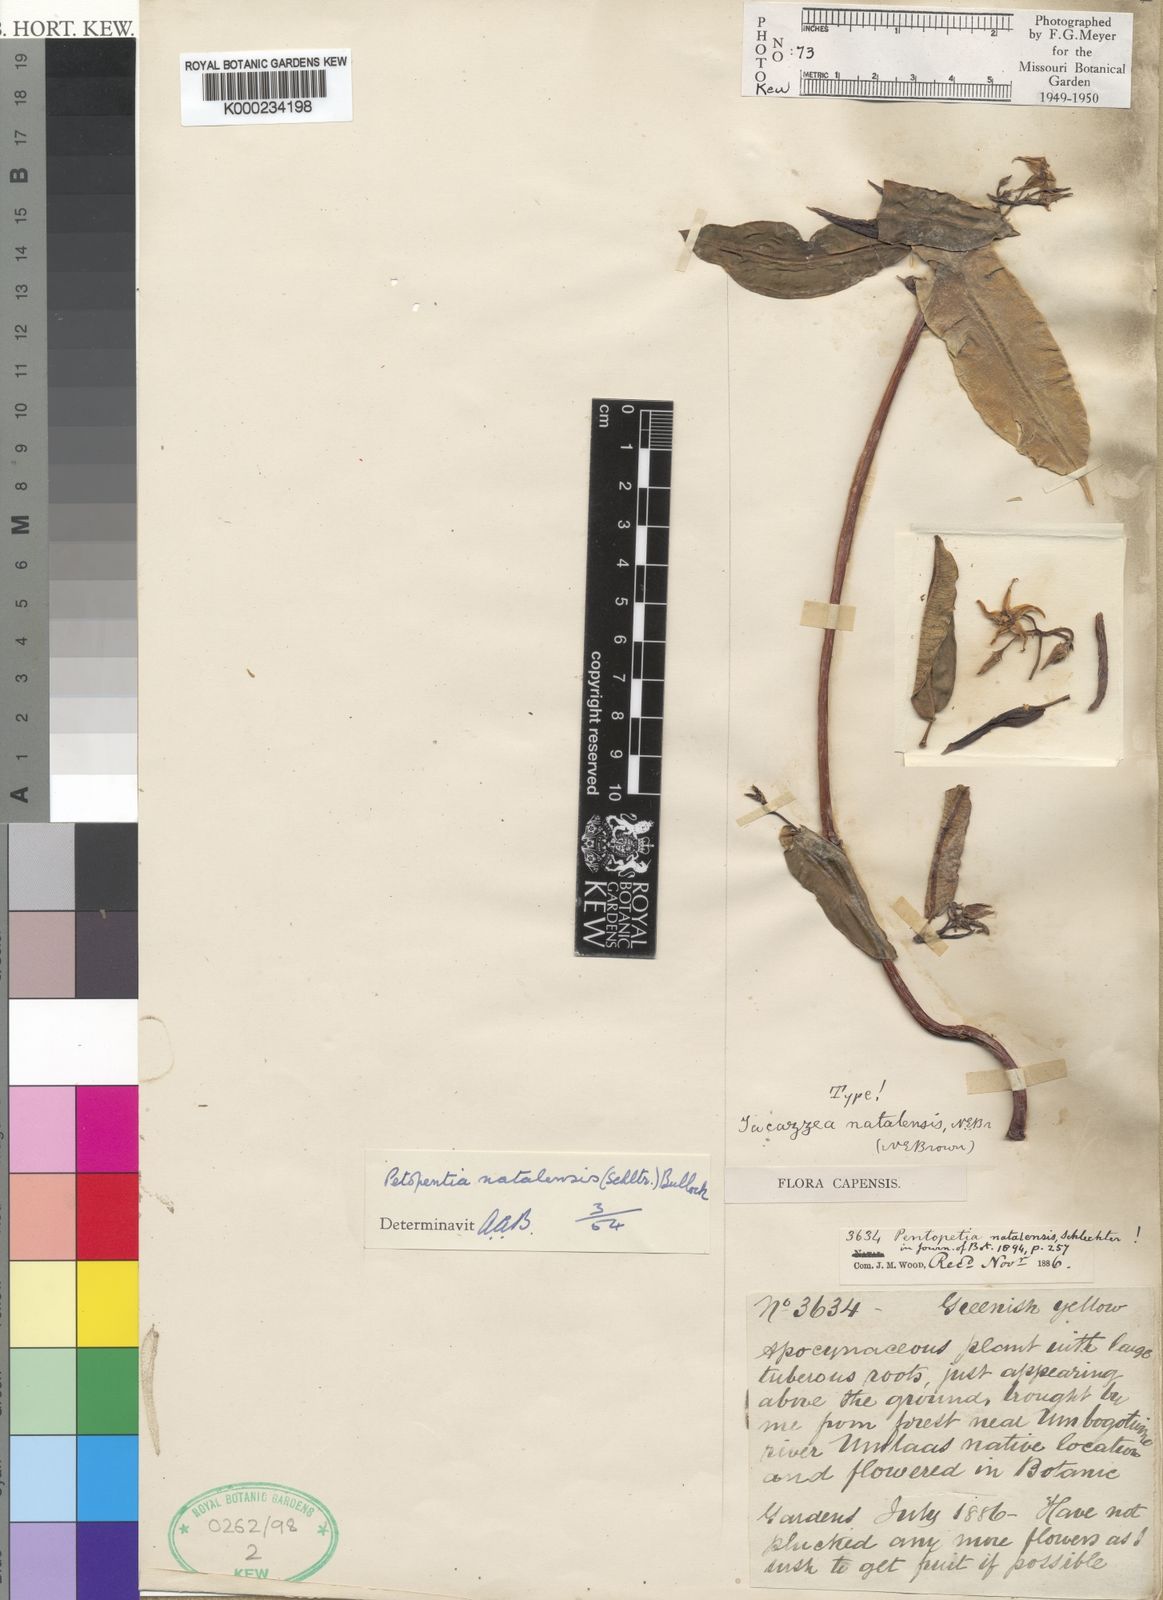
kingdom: Plantae
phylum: Tracheophyta
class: Magnoliopsida
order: Gentianales
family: Apocynaceae
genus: Petopentia
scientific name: Petopentia natalensis
